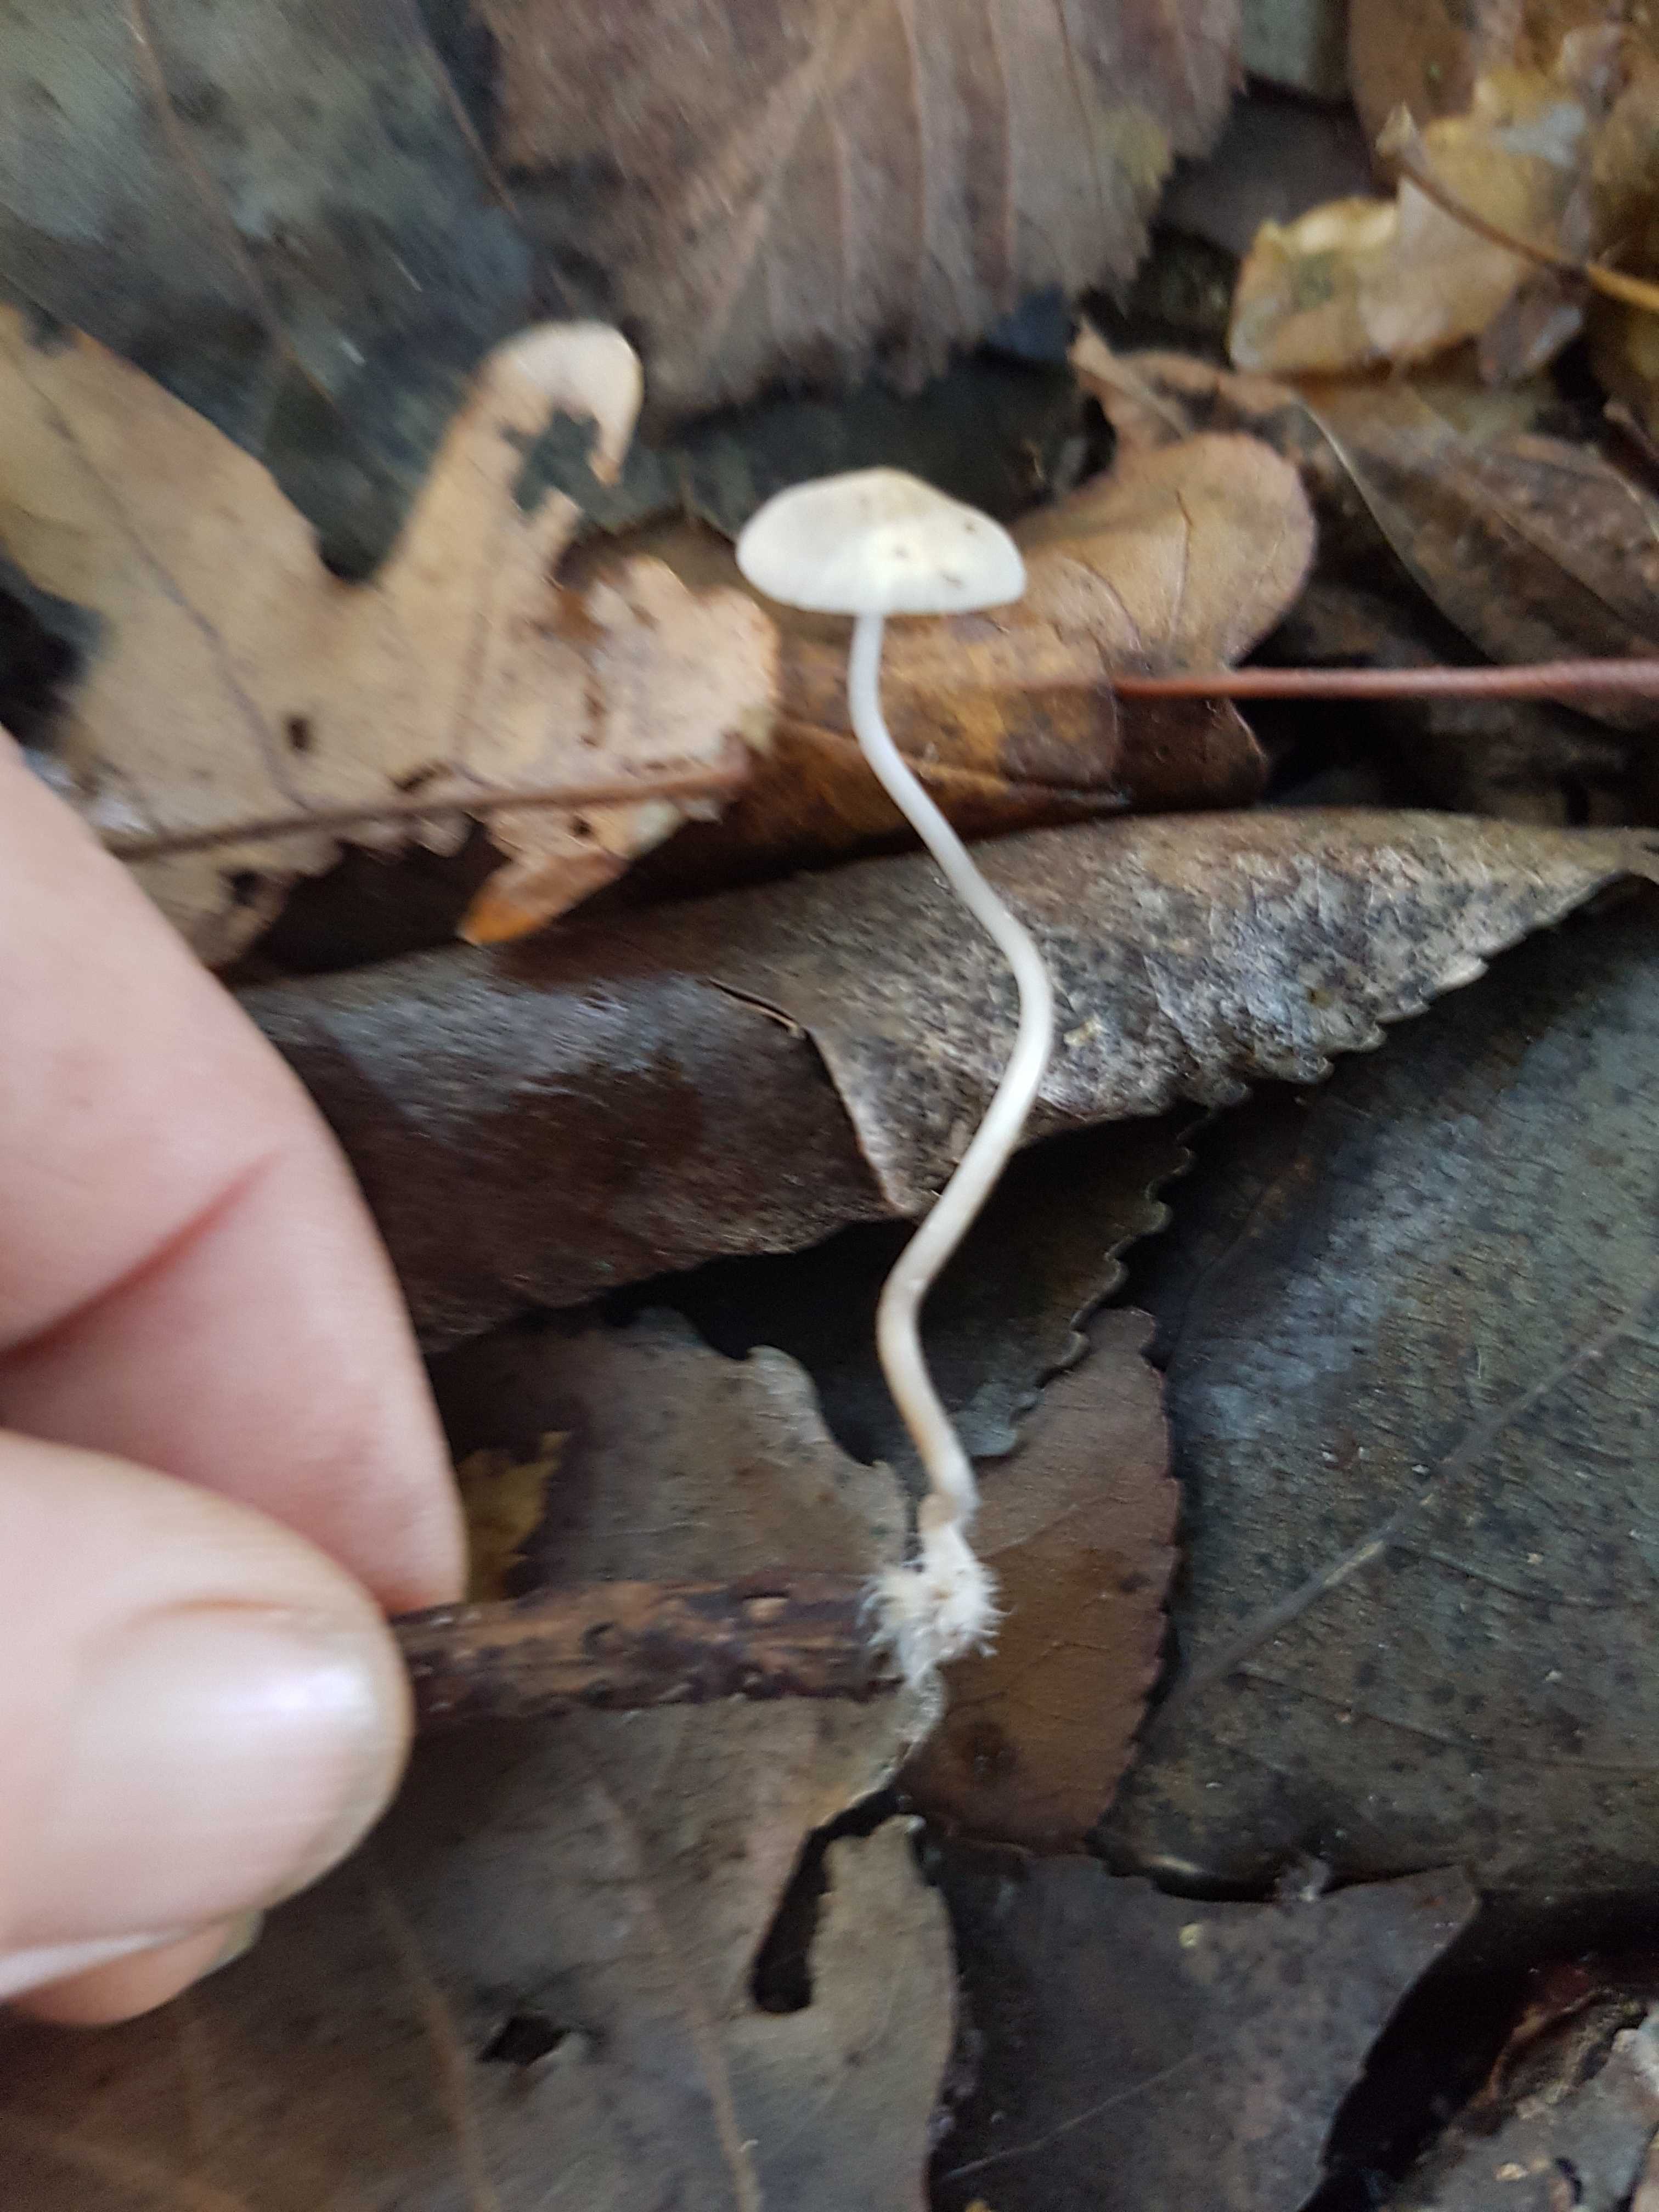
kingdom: Fungi
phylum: Basidiomycota
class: Agaricomycetes
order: Agaricales
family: Mycenaceae
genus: Mycena
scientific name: Mycena vitilis
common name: blankstokket huesvamp
